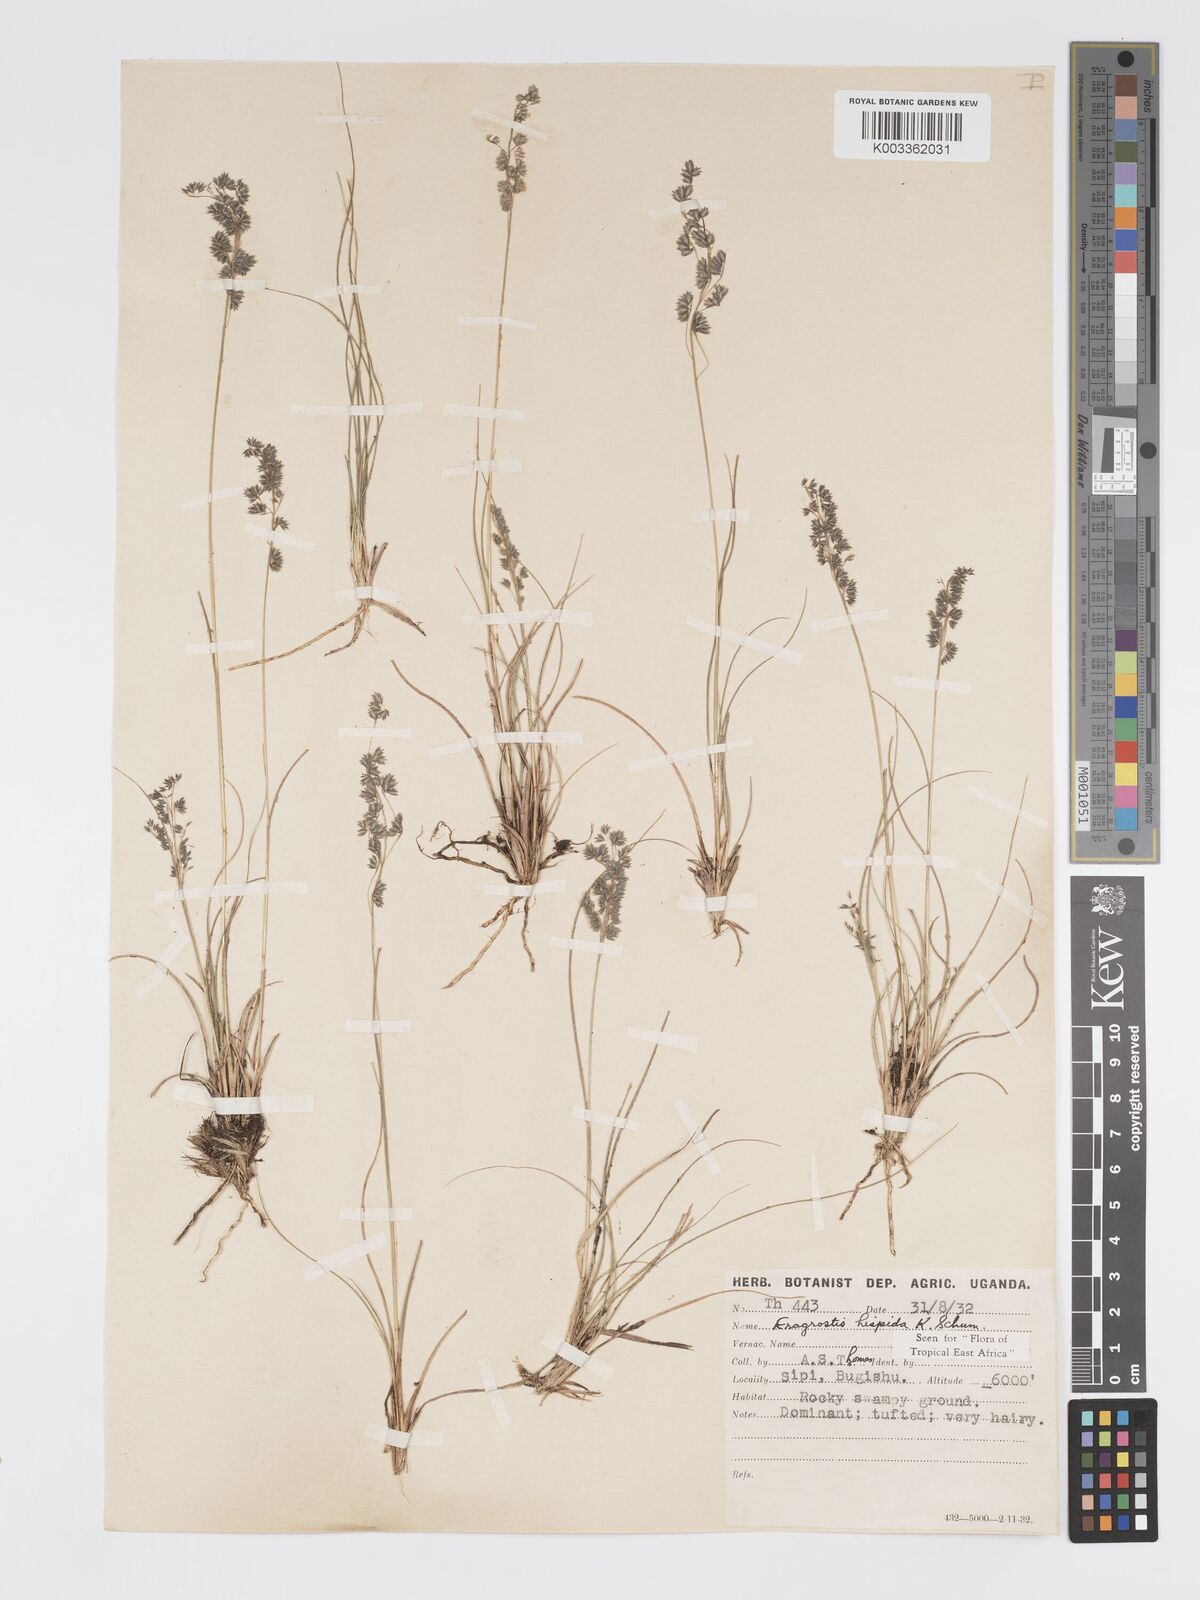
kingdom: Plantae
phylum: Tracheophyta
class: Liliopsida
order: Poales
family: Poaceae
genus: Eragrostis
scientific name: Eragrostis hispida
